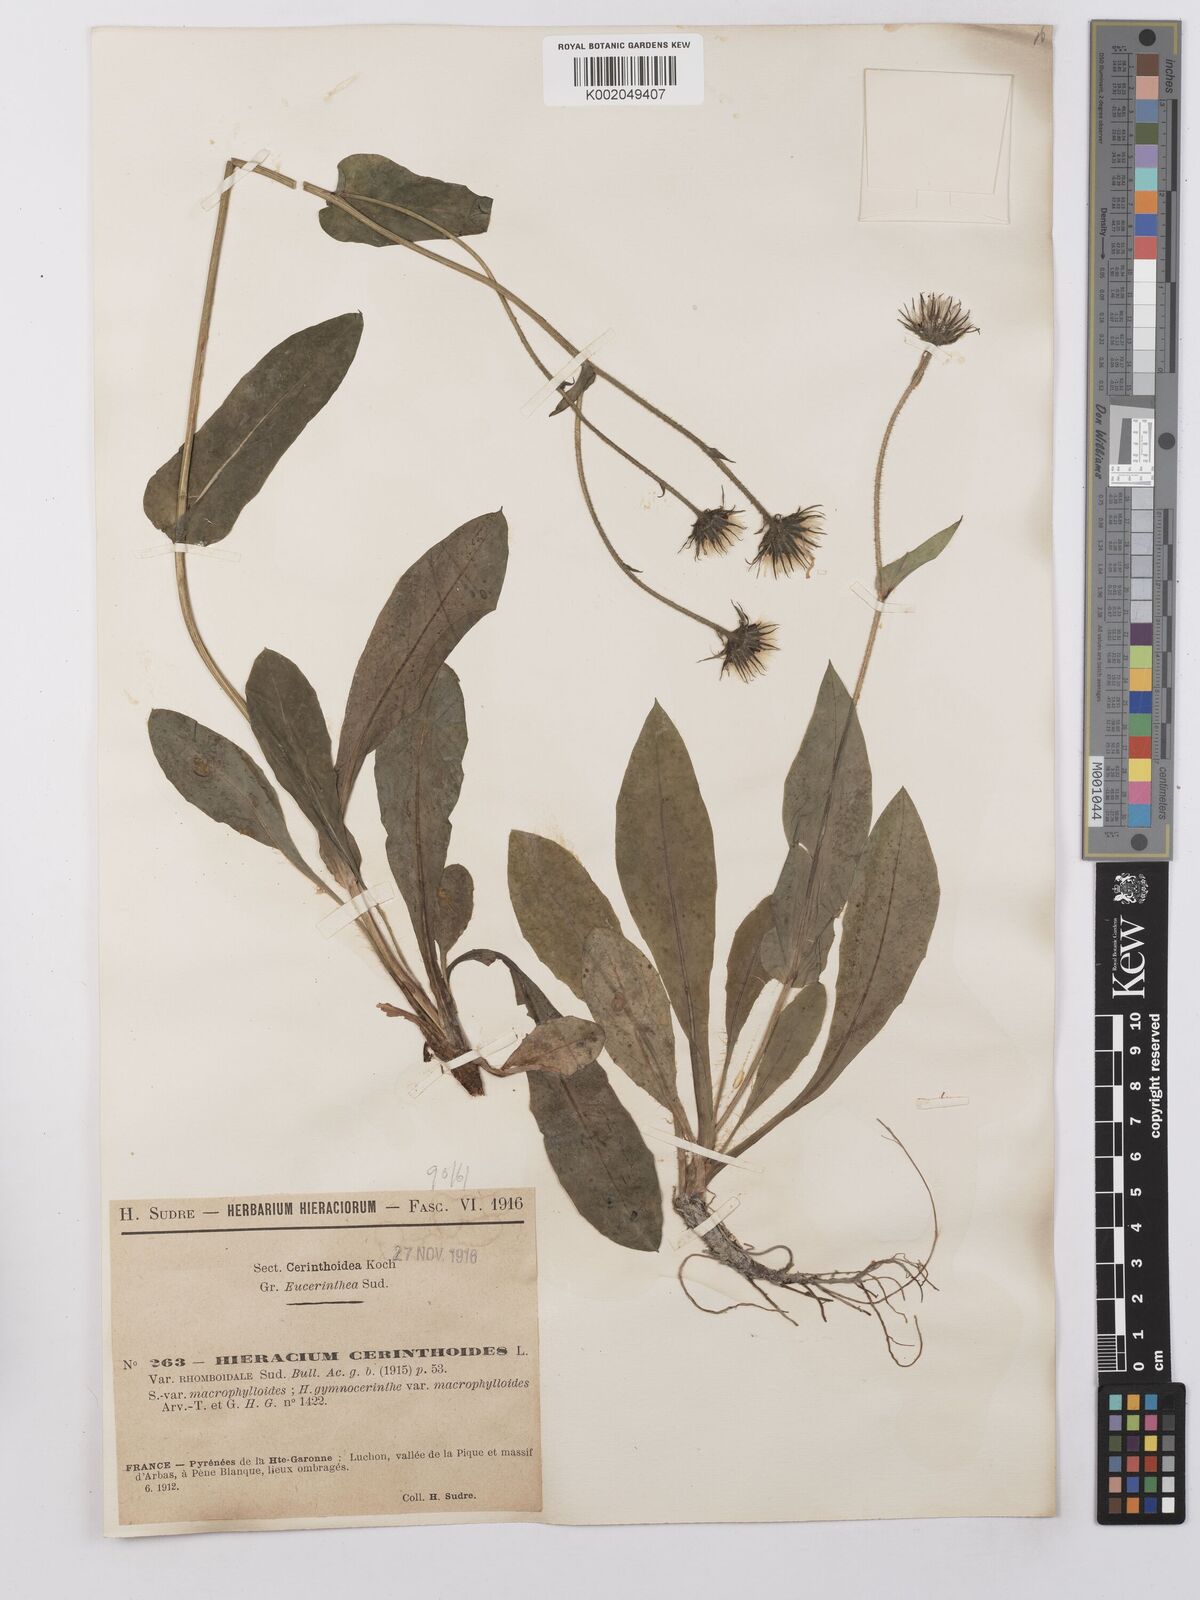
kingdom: Plantae
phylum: Tracheophyta
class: Magnoliopsida
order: Asterales
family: Asteraceae
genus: Hieracium
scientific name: Hieracium cerinthoides
